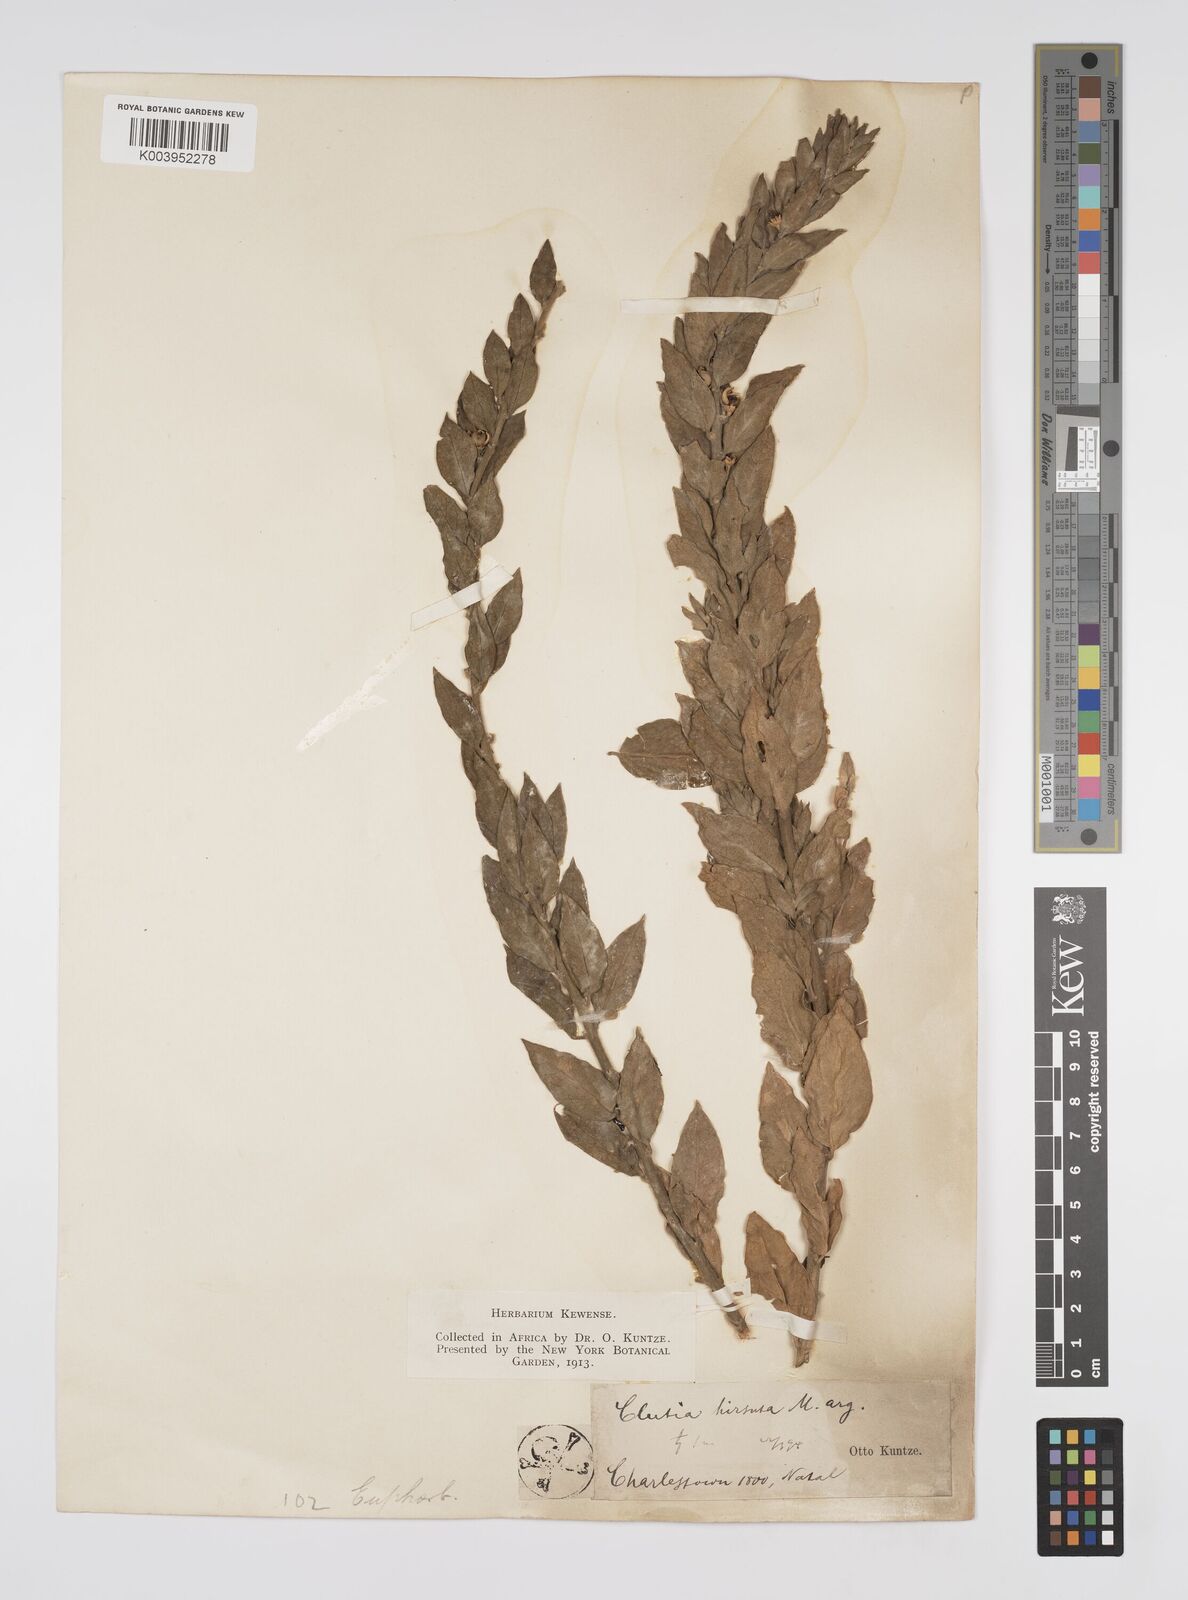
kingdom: Plantae
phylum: Tracheophyta
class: Magnoliopsida
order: Malpighiales
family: Peraceae
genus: Clutia
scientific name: Clutia affinis
